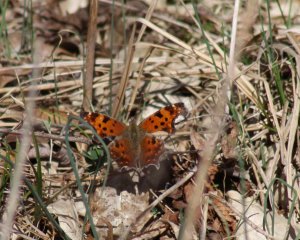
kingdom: Animalia
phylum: Arthropoda
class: Insecta
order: Lepidoptera
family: Nymphalidae
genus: Polygonia
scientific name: Polygonia interrogationis
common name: Question Mark
